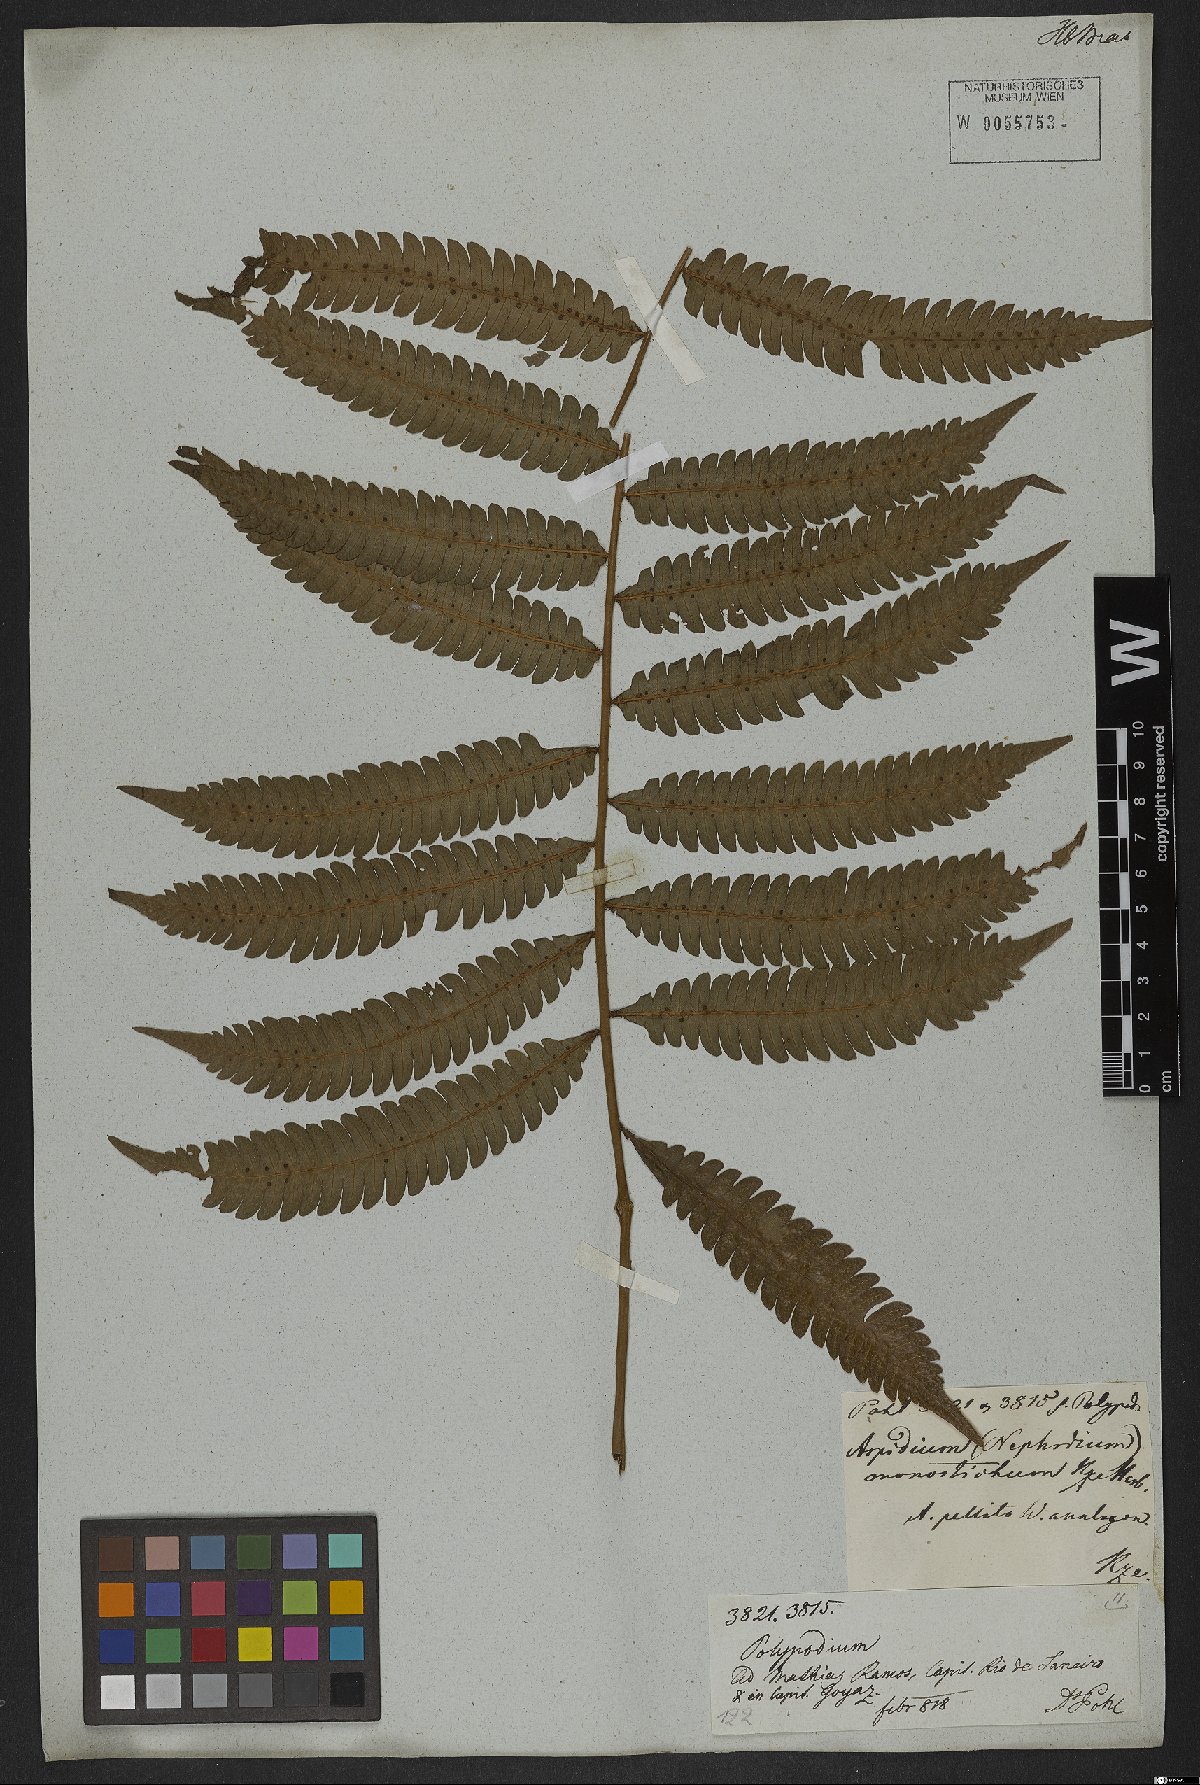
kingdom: Plantae
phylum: Tracheophyta
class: Polypodiopsida
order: Polypodiales
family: Thelypteridaceae
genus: Goniopteris
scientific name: Goniopteris tristis
